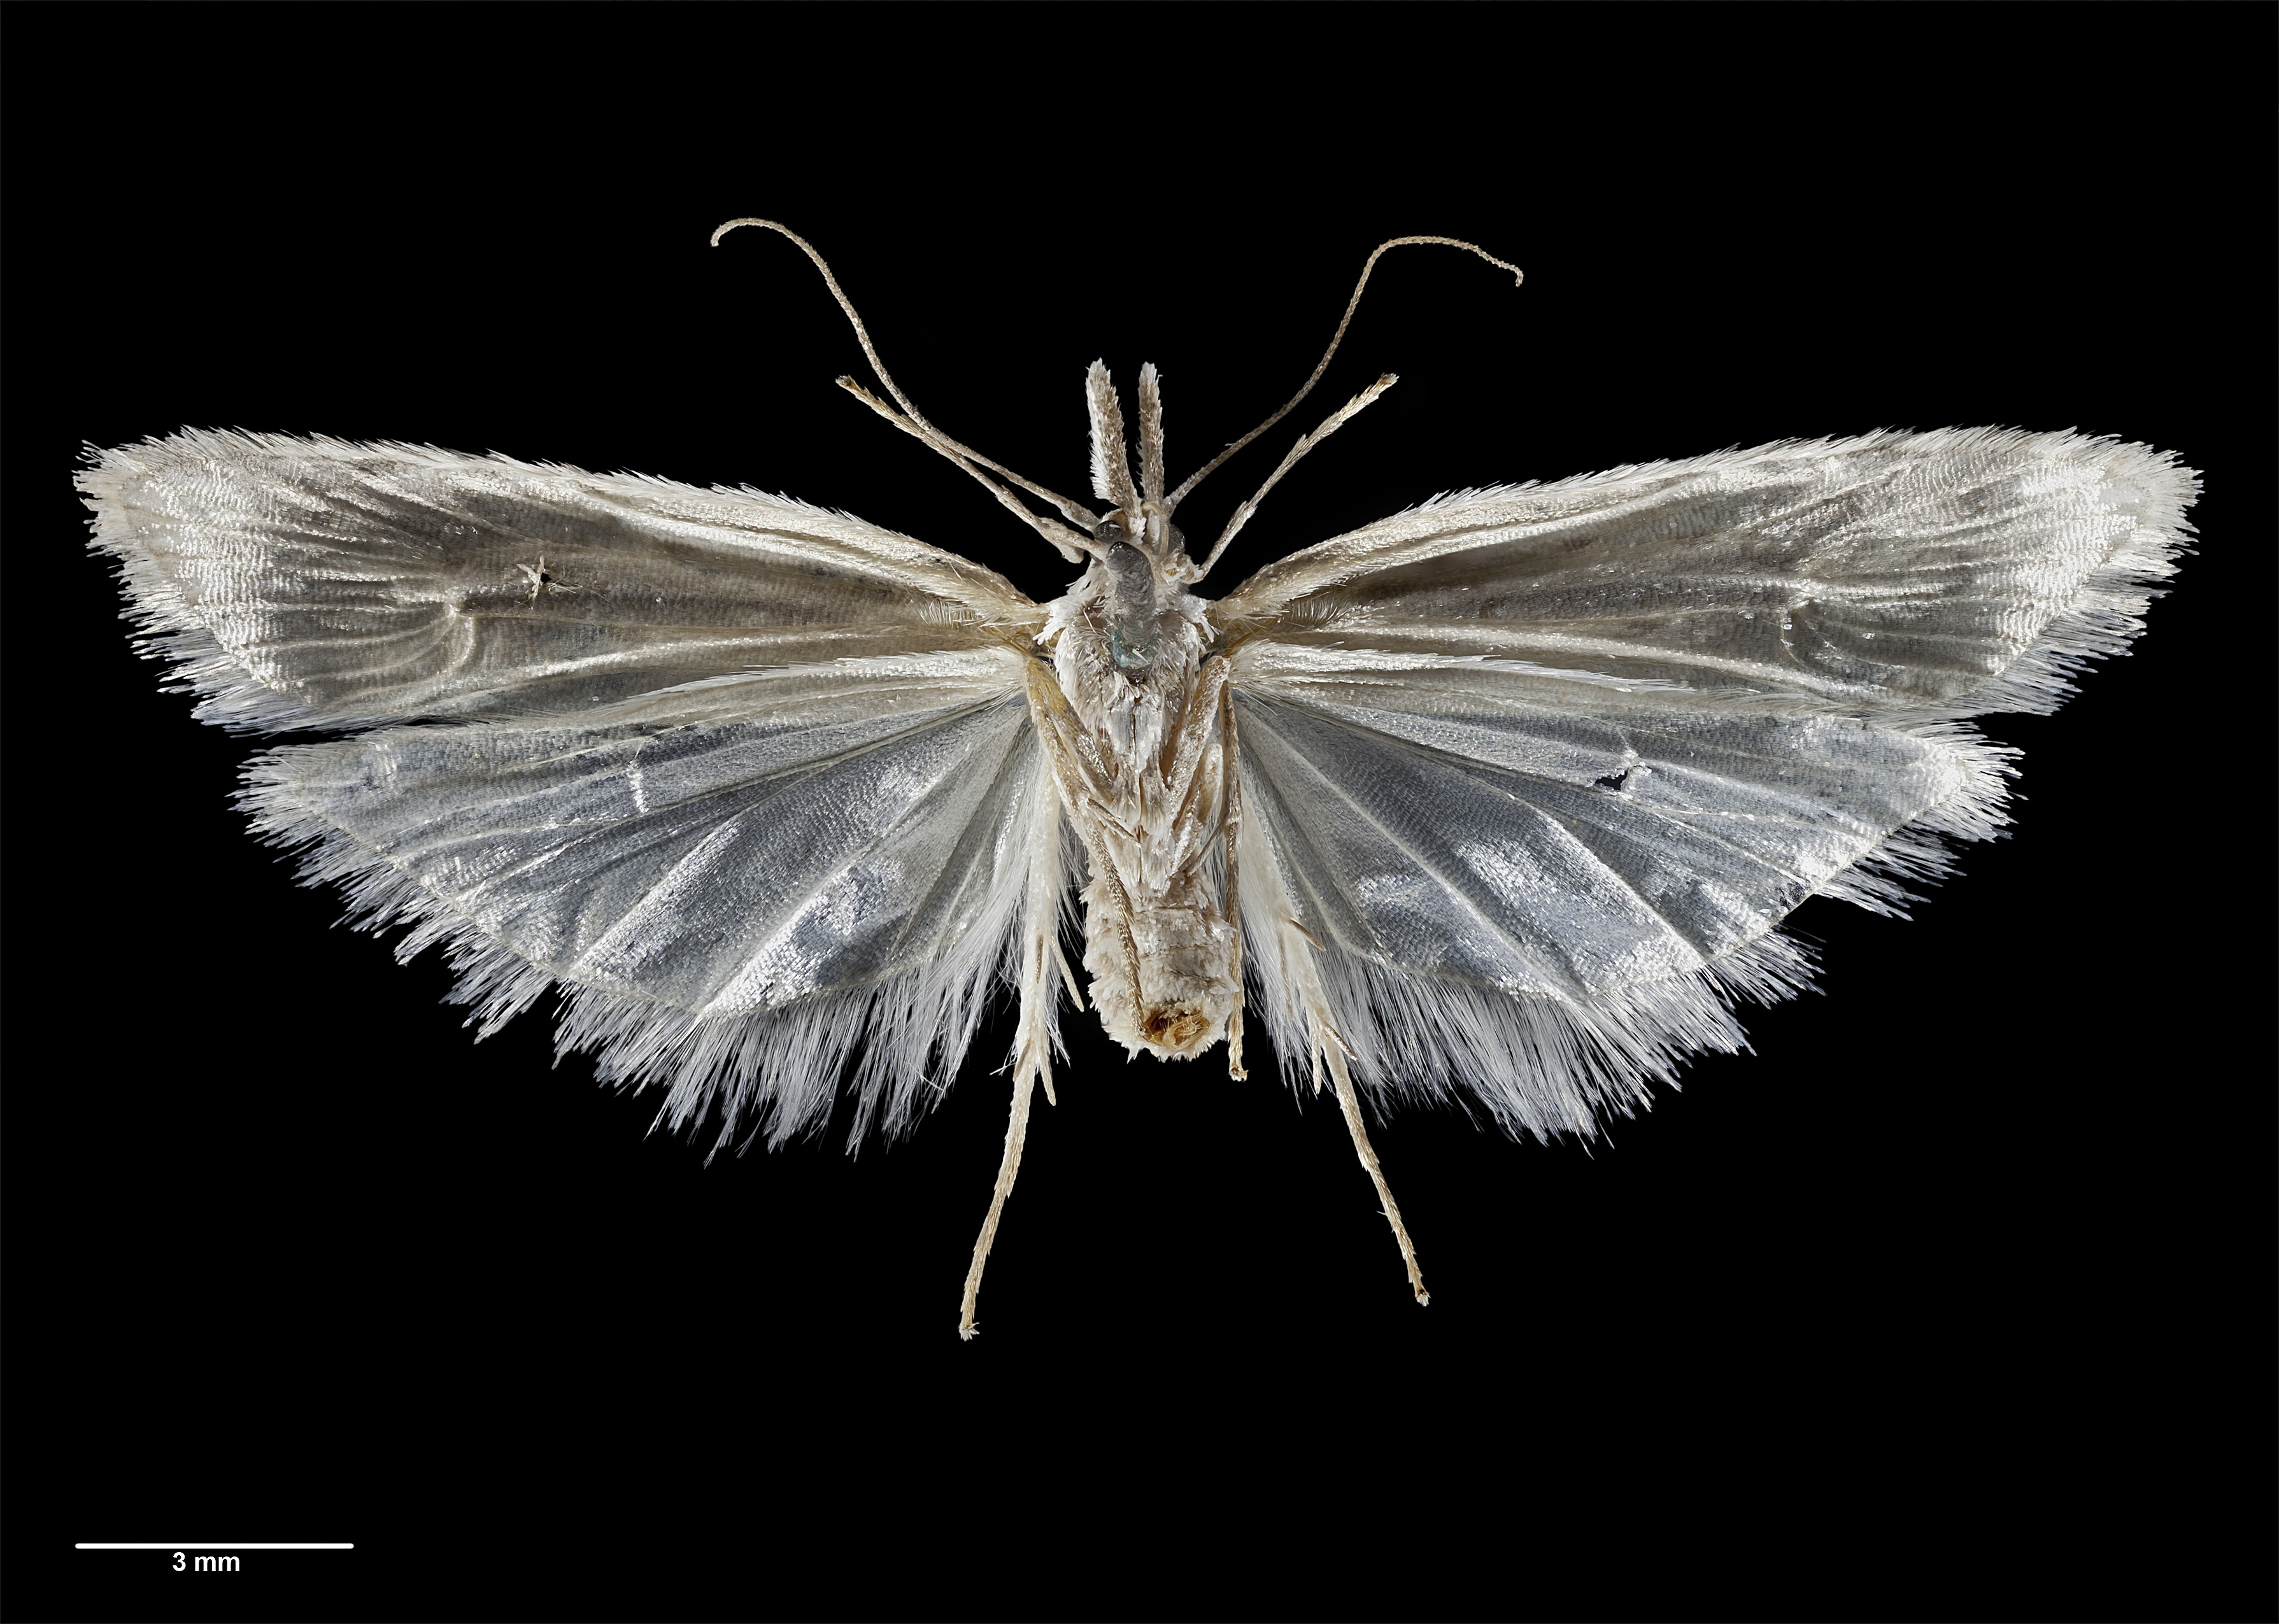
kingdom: Animalia
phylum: Arthropoda
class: Insecta
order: Lepidoptera
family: Carposinidae
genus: Carposina
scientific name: Carposina
